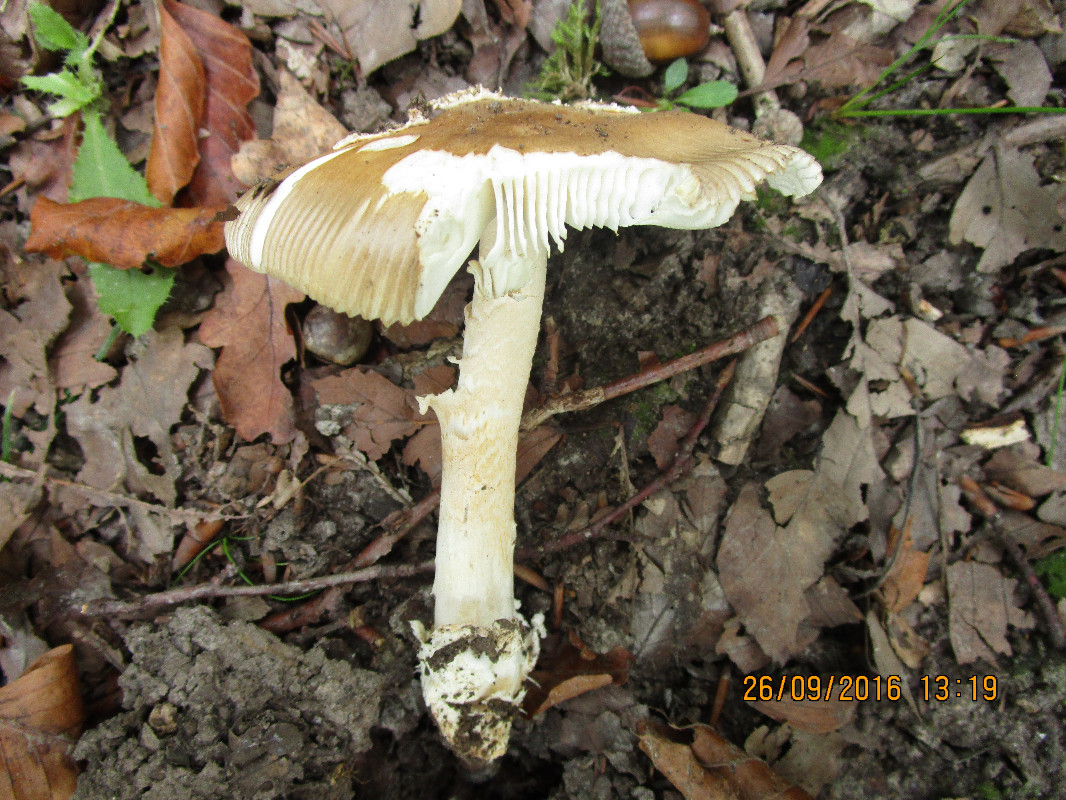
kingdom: Fungi
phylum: Basidiomycota
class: Agaricomycetes
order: Agaricales
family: Amanitaceae
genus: Amanita
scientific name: Amanita lividopallescens
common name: afblegende kam-fluesvamp
